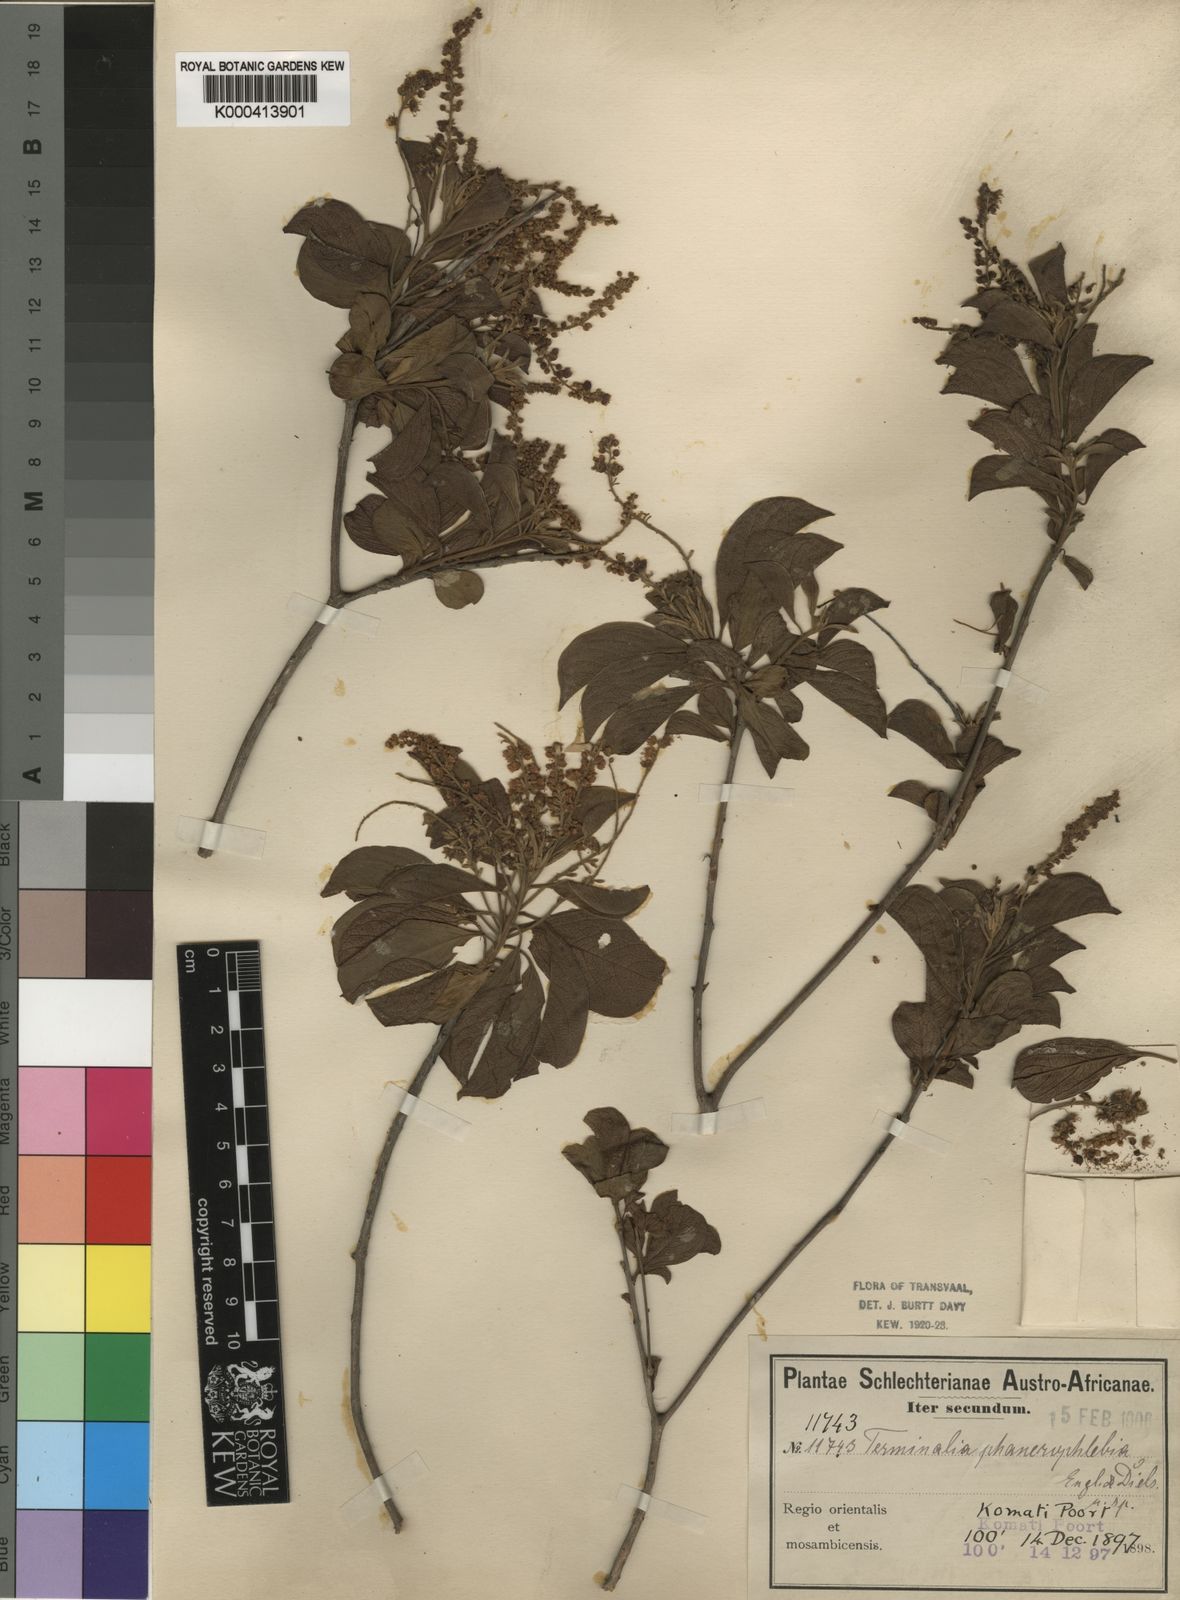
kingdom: Plantae
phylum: Tracheophyta
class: Magnoliopsida
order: Myrtales
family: Combretaceae
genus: Terminalia
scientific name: Terminalia phanerophlebia
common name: Lebombo cluster-leaf
